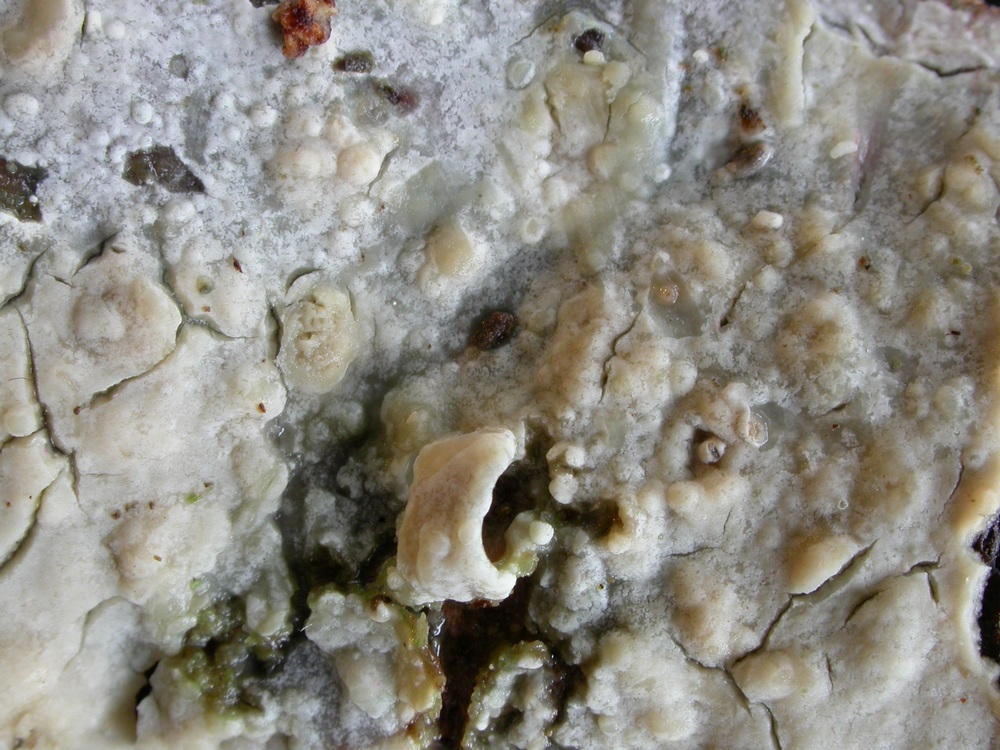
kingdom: Fungi
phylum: Basidiomycota
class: Agaricomycetes
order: Russulales
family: Stereaceae
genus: Gloeocystidiellum
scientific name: Gloeocystidiellum porosum
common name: mælkehvid olieskind
